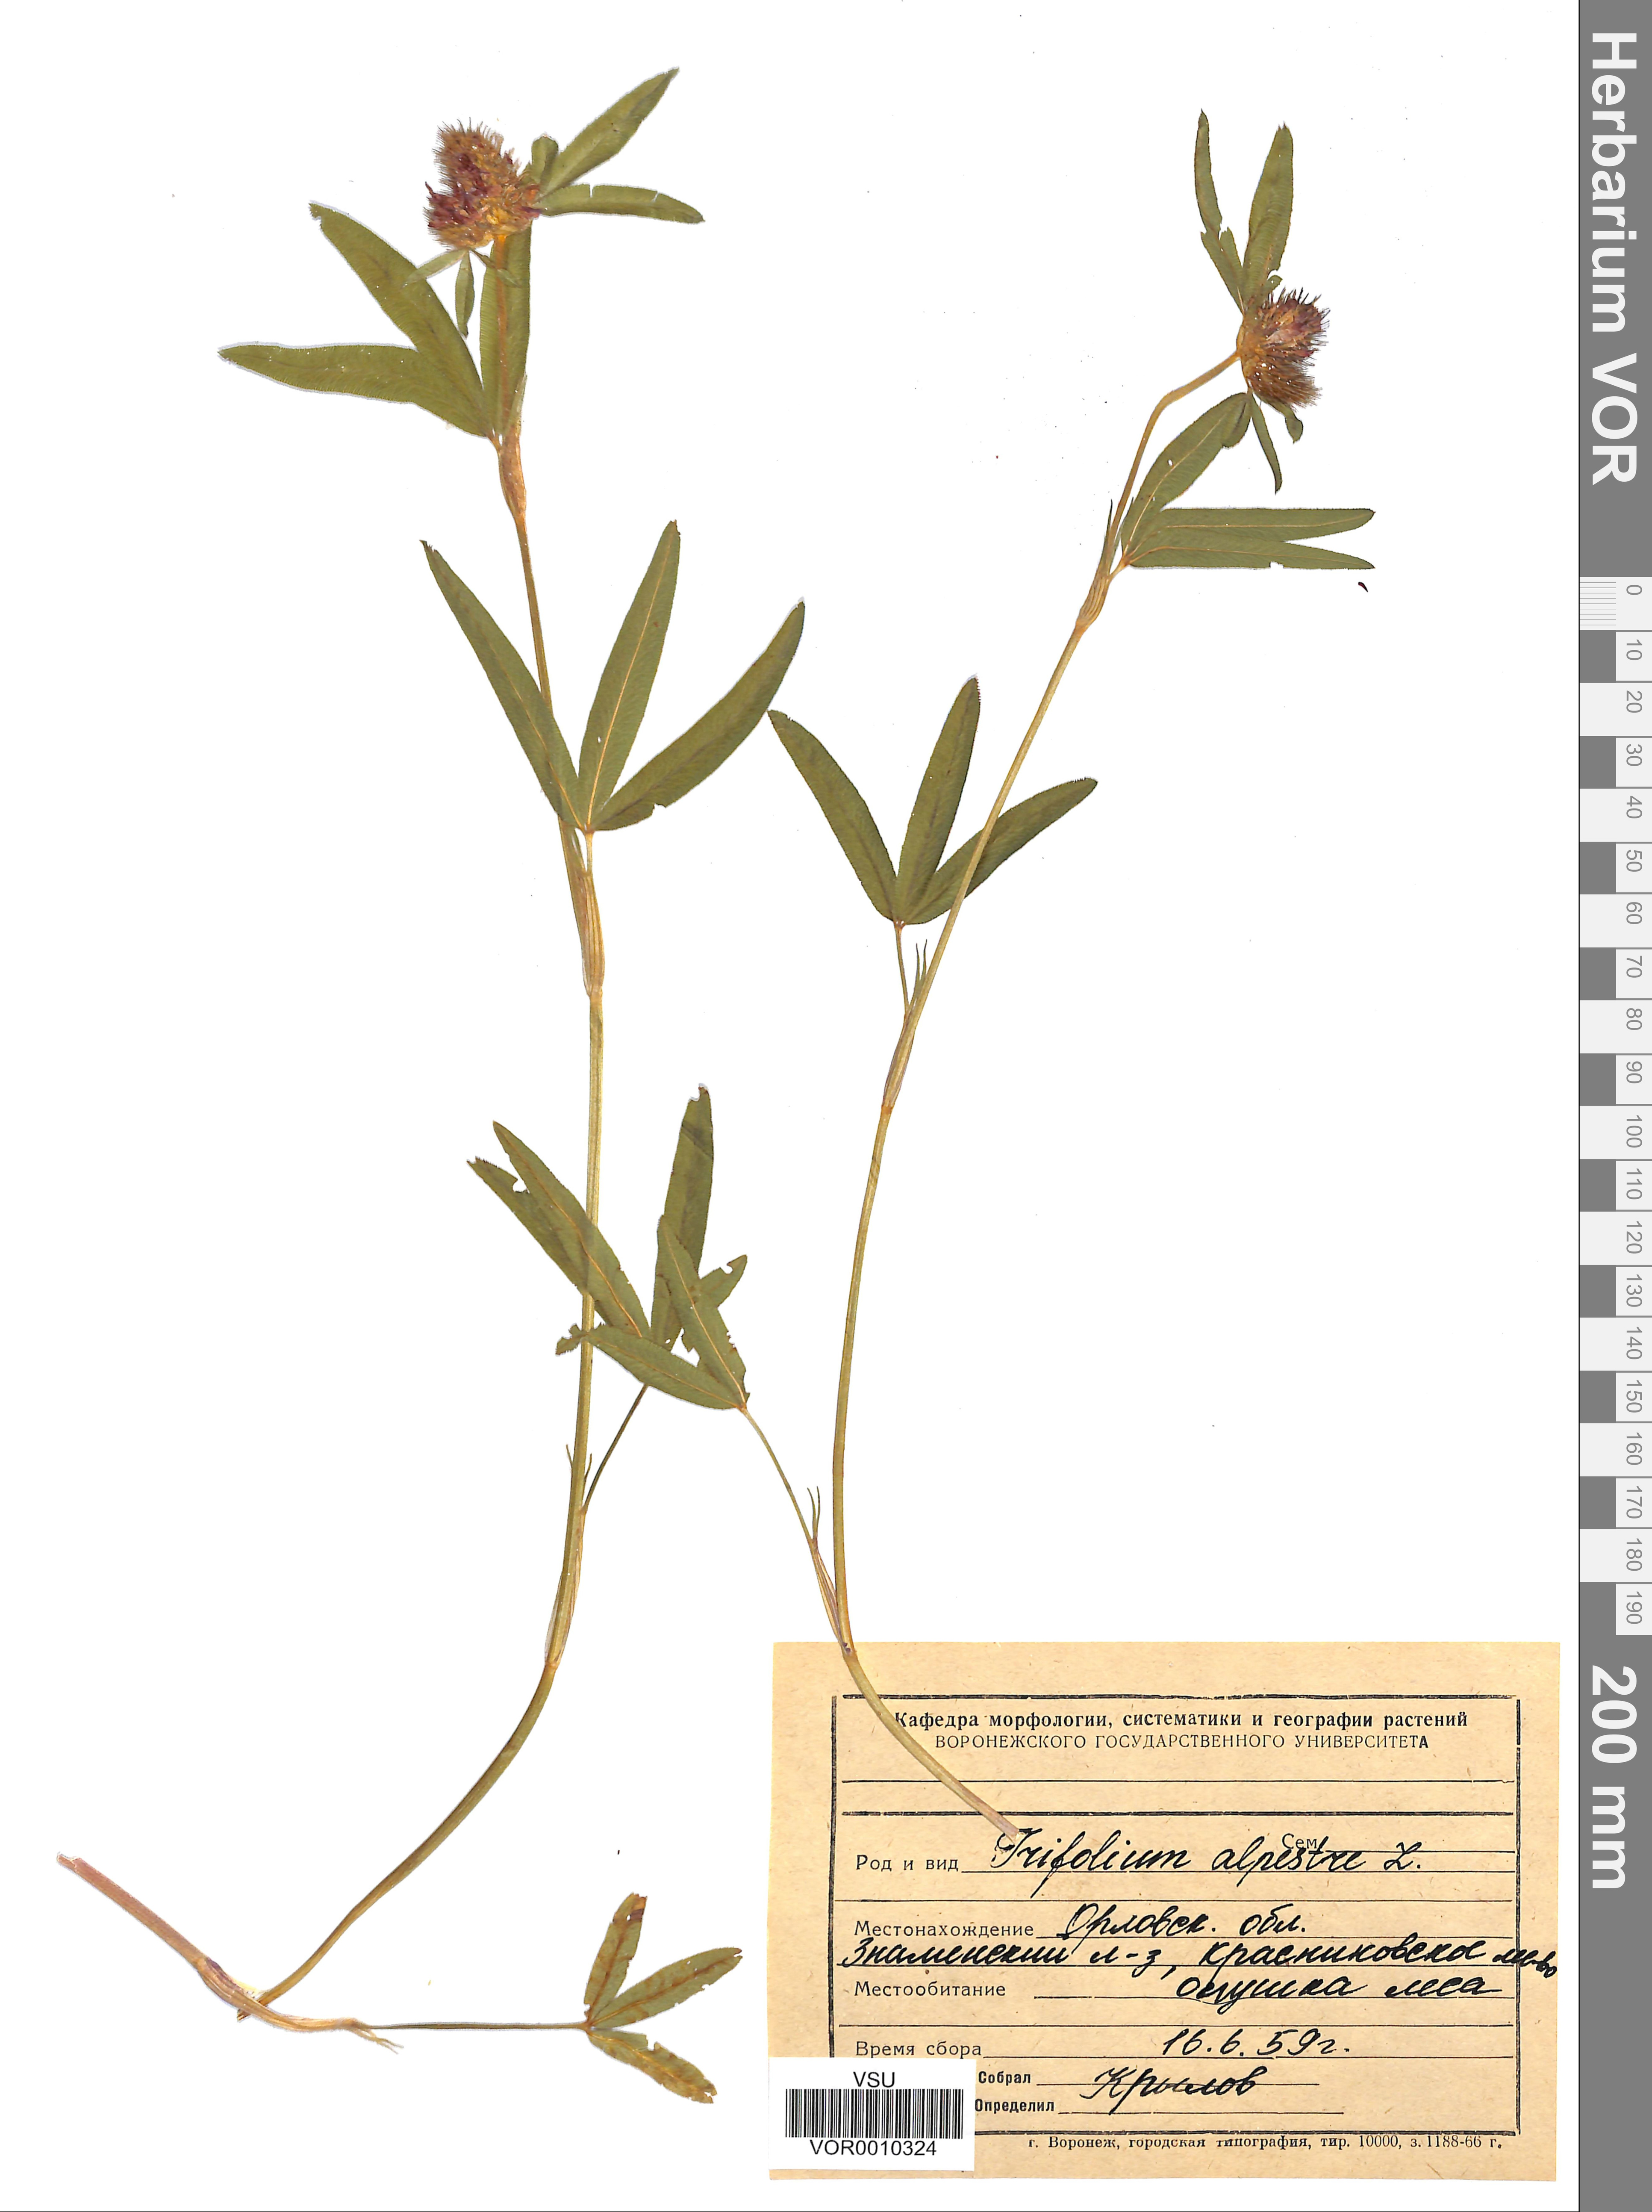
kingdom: Plantae
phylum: Tracheophyta
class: Magnoliopsida
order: Fabales
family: Fabaceae
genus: Trifolium
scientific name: Trifolium alpestre
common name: Owl-head clover
